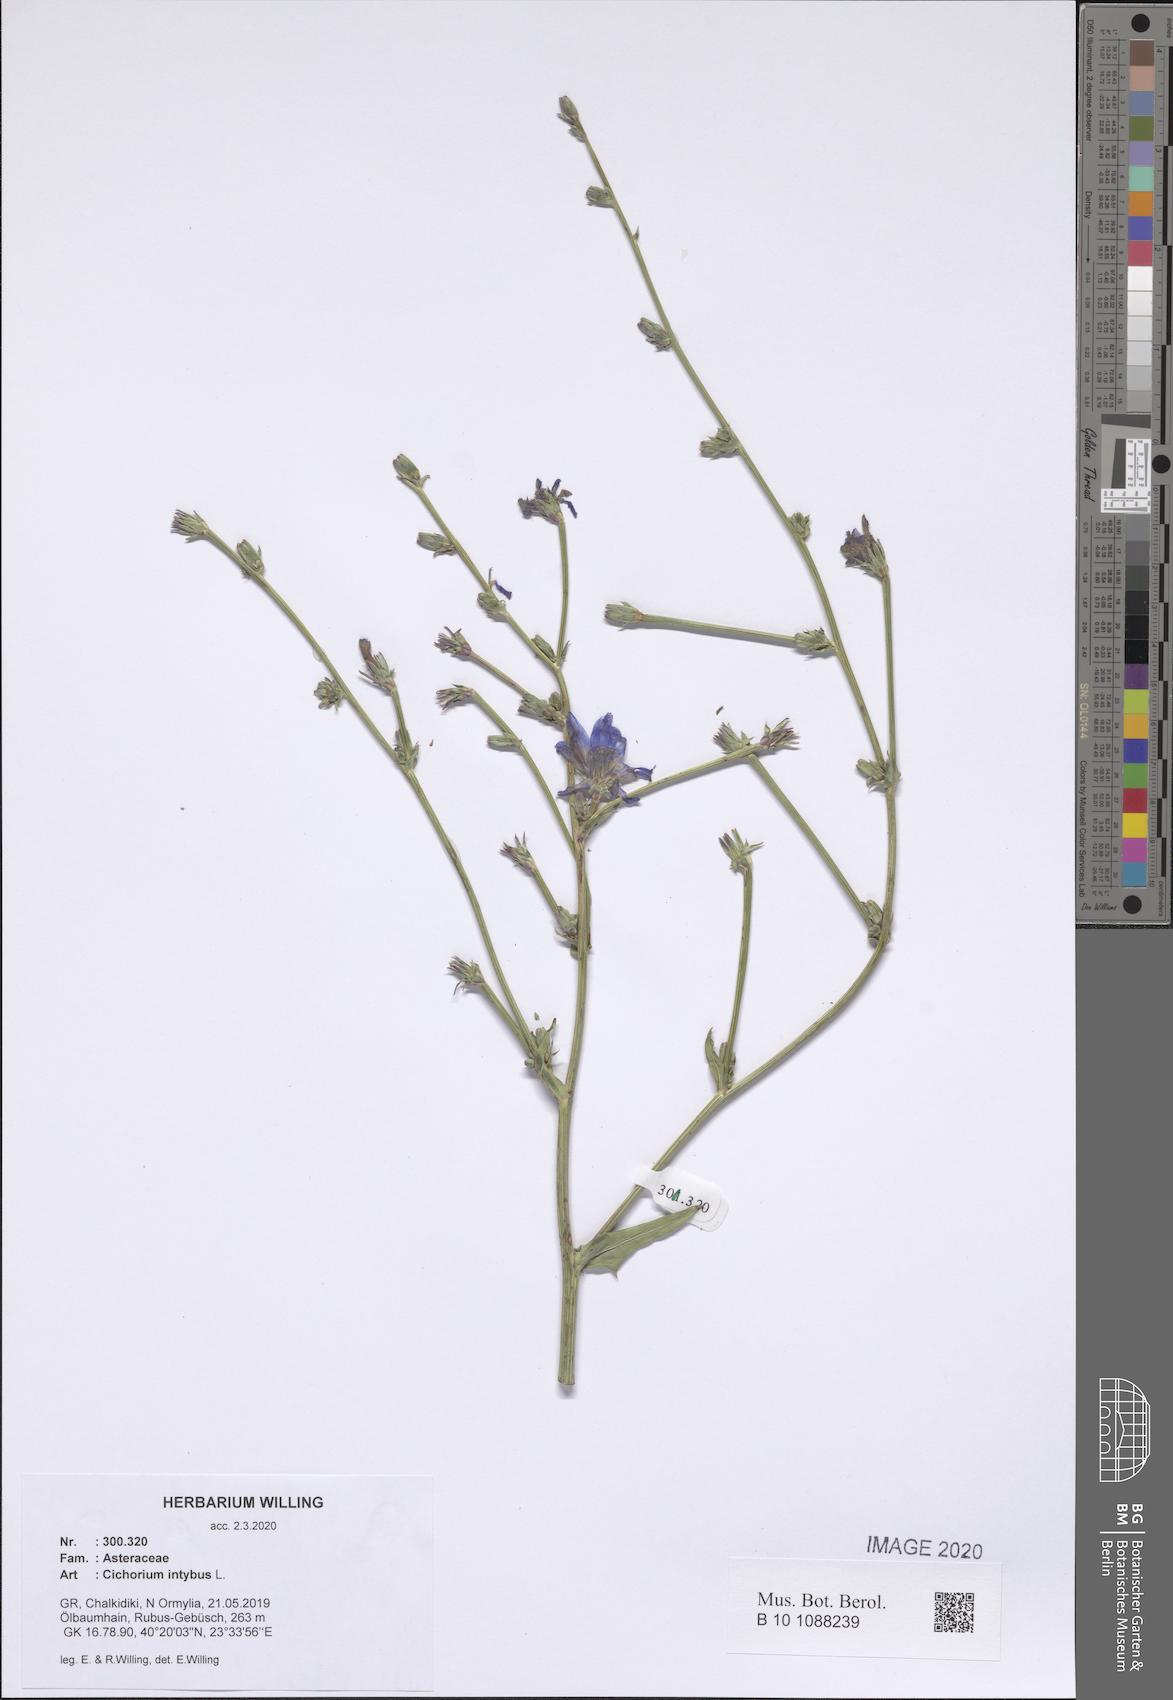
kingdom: Plantae
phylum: Tracheophyta
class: Magnoliopsida
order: Asterales
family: Asteraceae
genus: Cichorium
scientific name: Cichorium intybus
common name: Chicory
